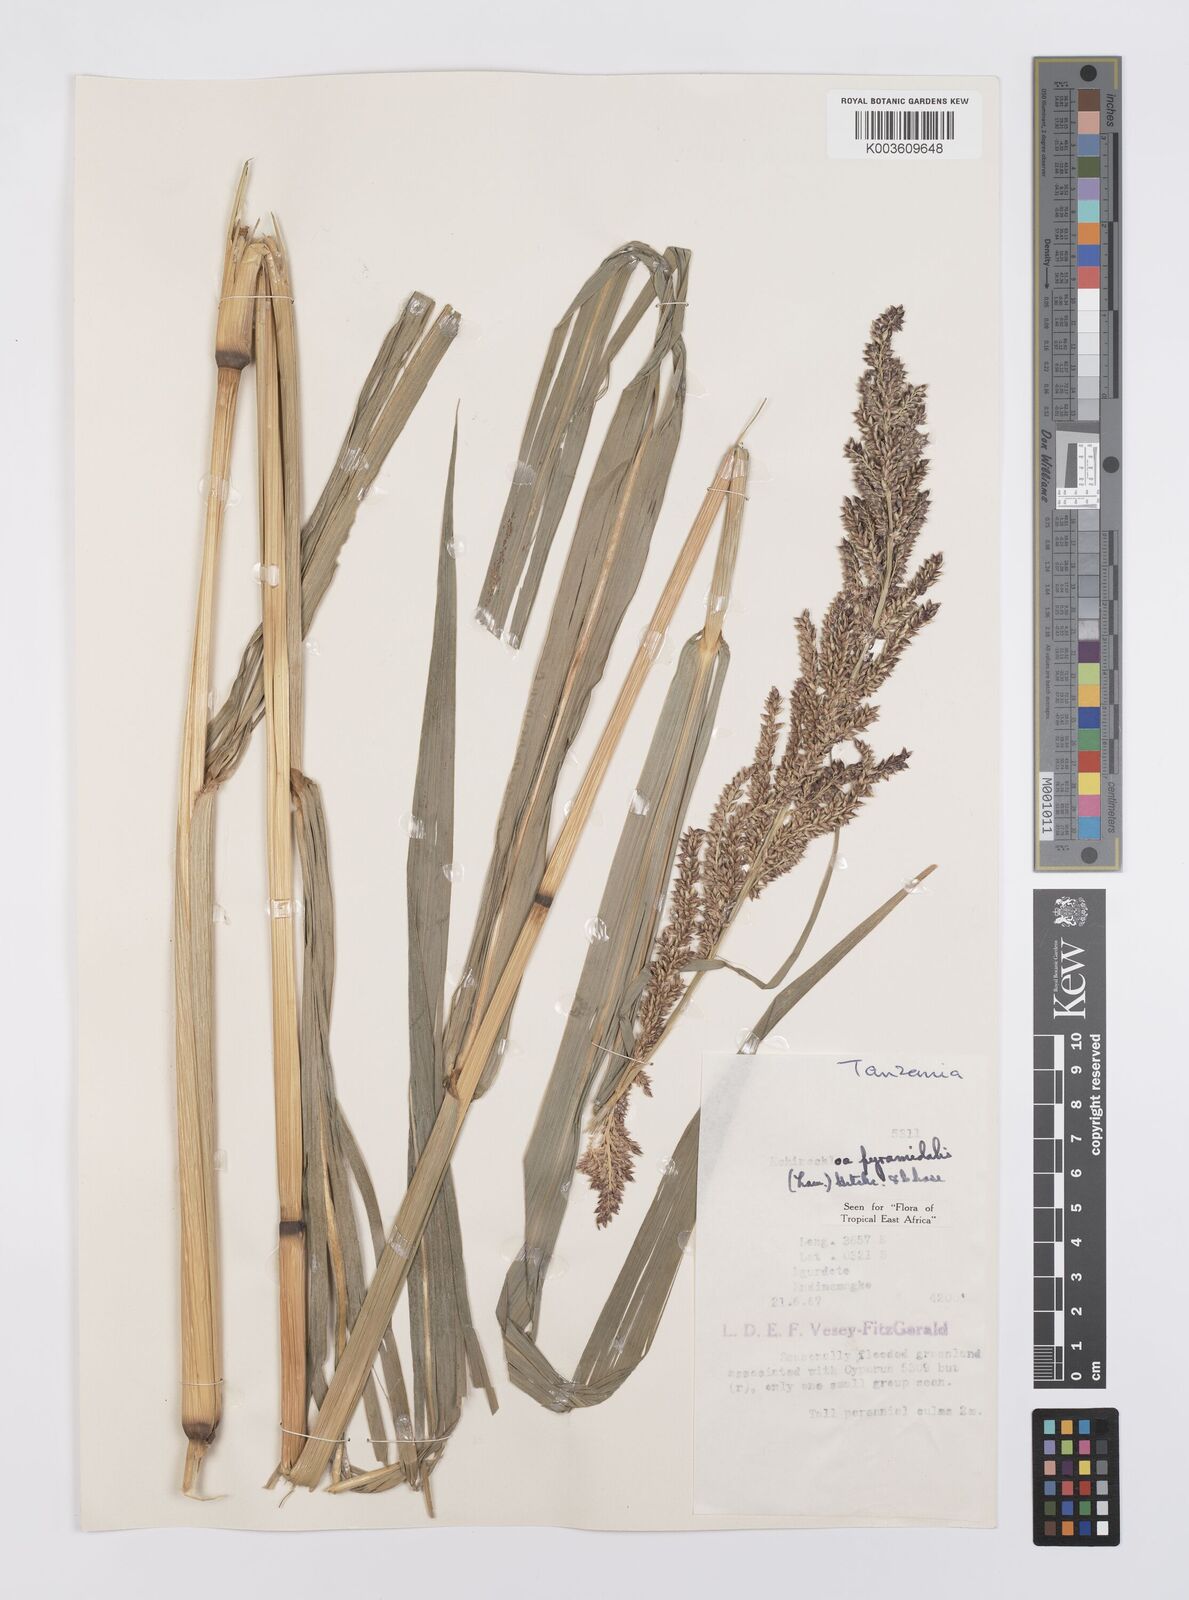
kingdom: Plantae
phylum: Tracheophyta
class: Liliopsida
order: Poales
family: Poaceae
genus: Echinochloa
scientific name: Echinochloa pyramidalis
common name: Antelope grass
